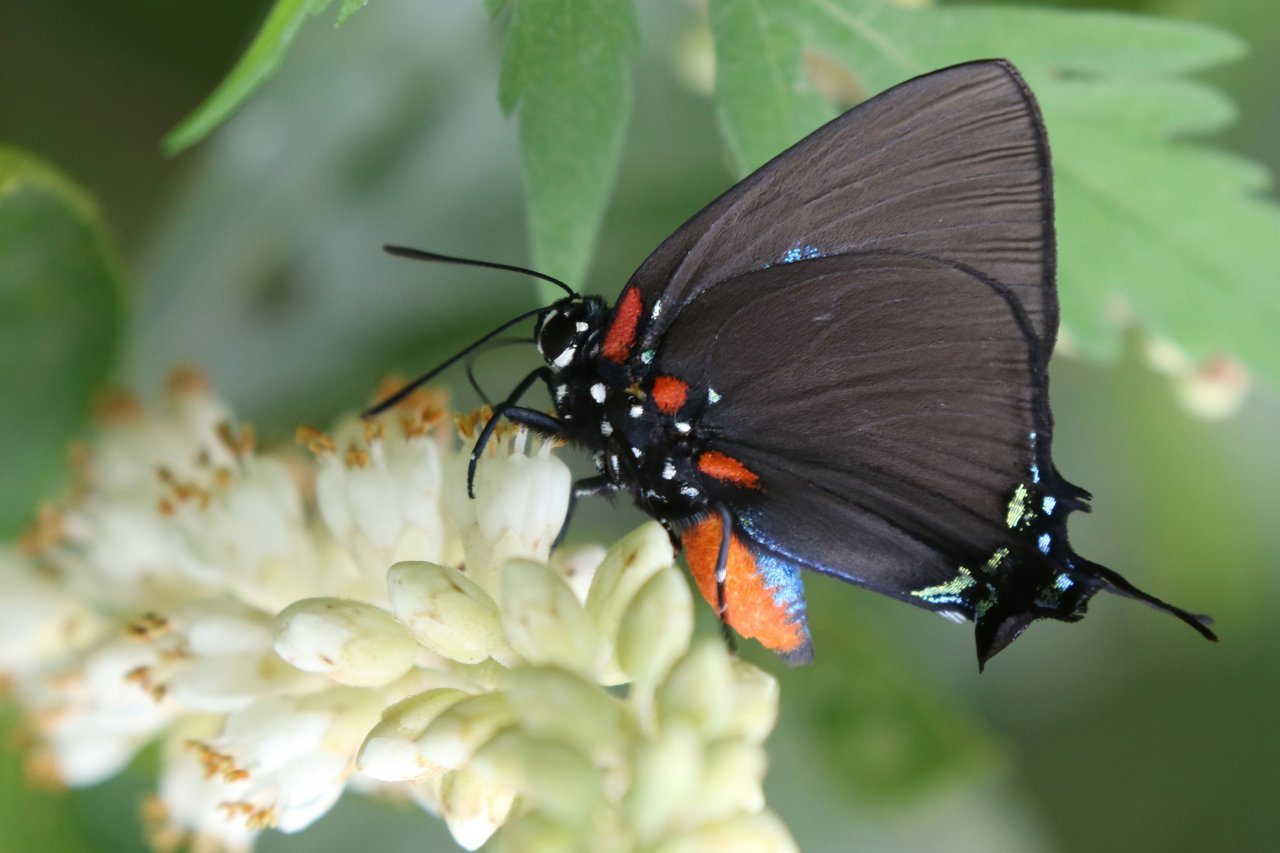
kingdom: Animalia
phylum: Arthropoda
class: Insecta
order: Lepidoptera
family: Lycaenidae
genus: Atlides
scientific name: Atlides halesus
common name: Great Purple Hairstreak
